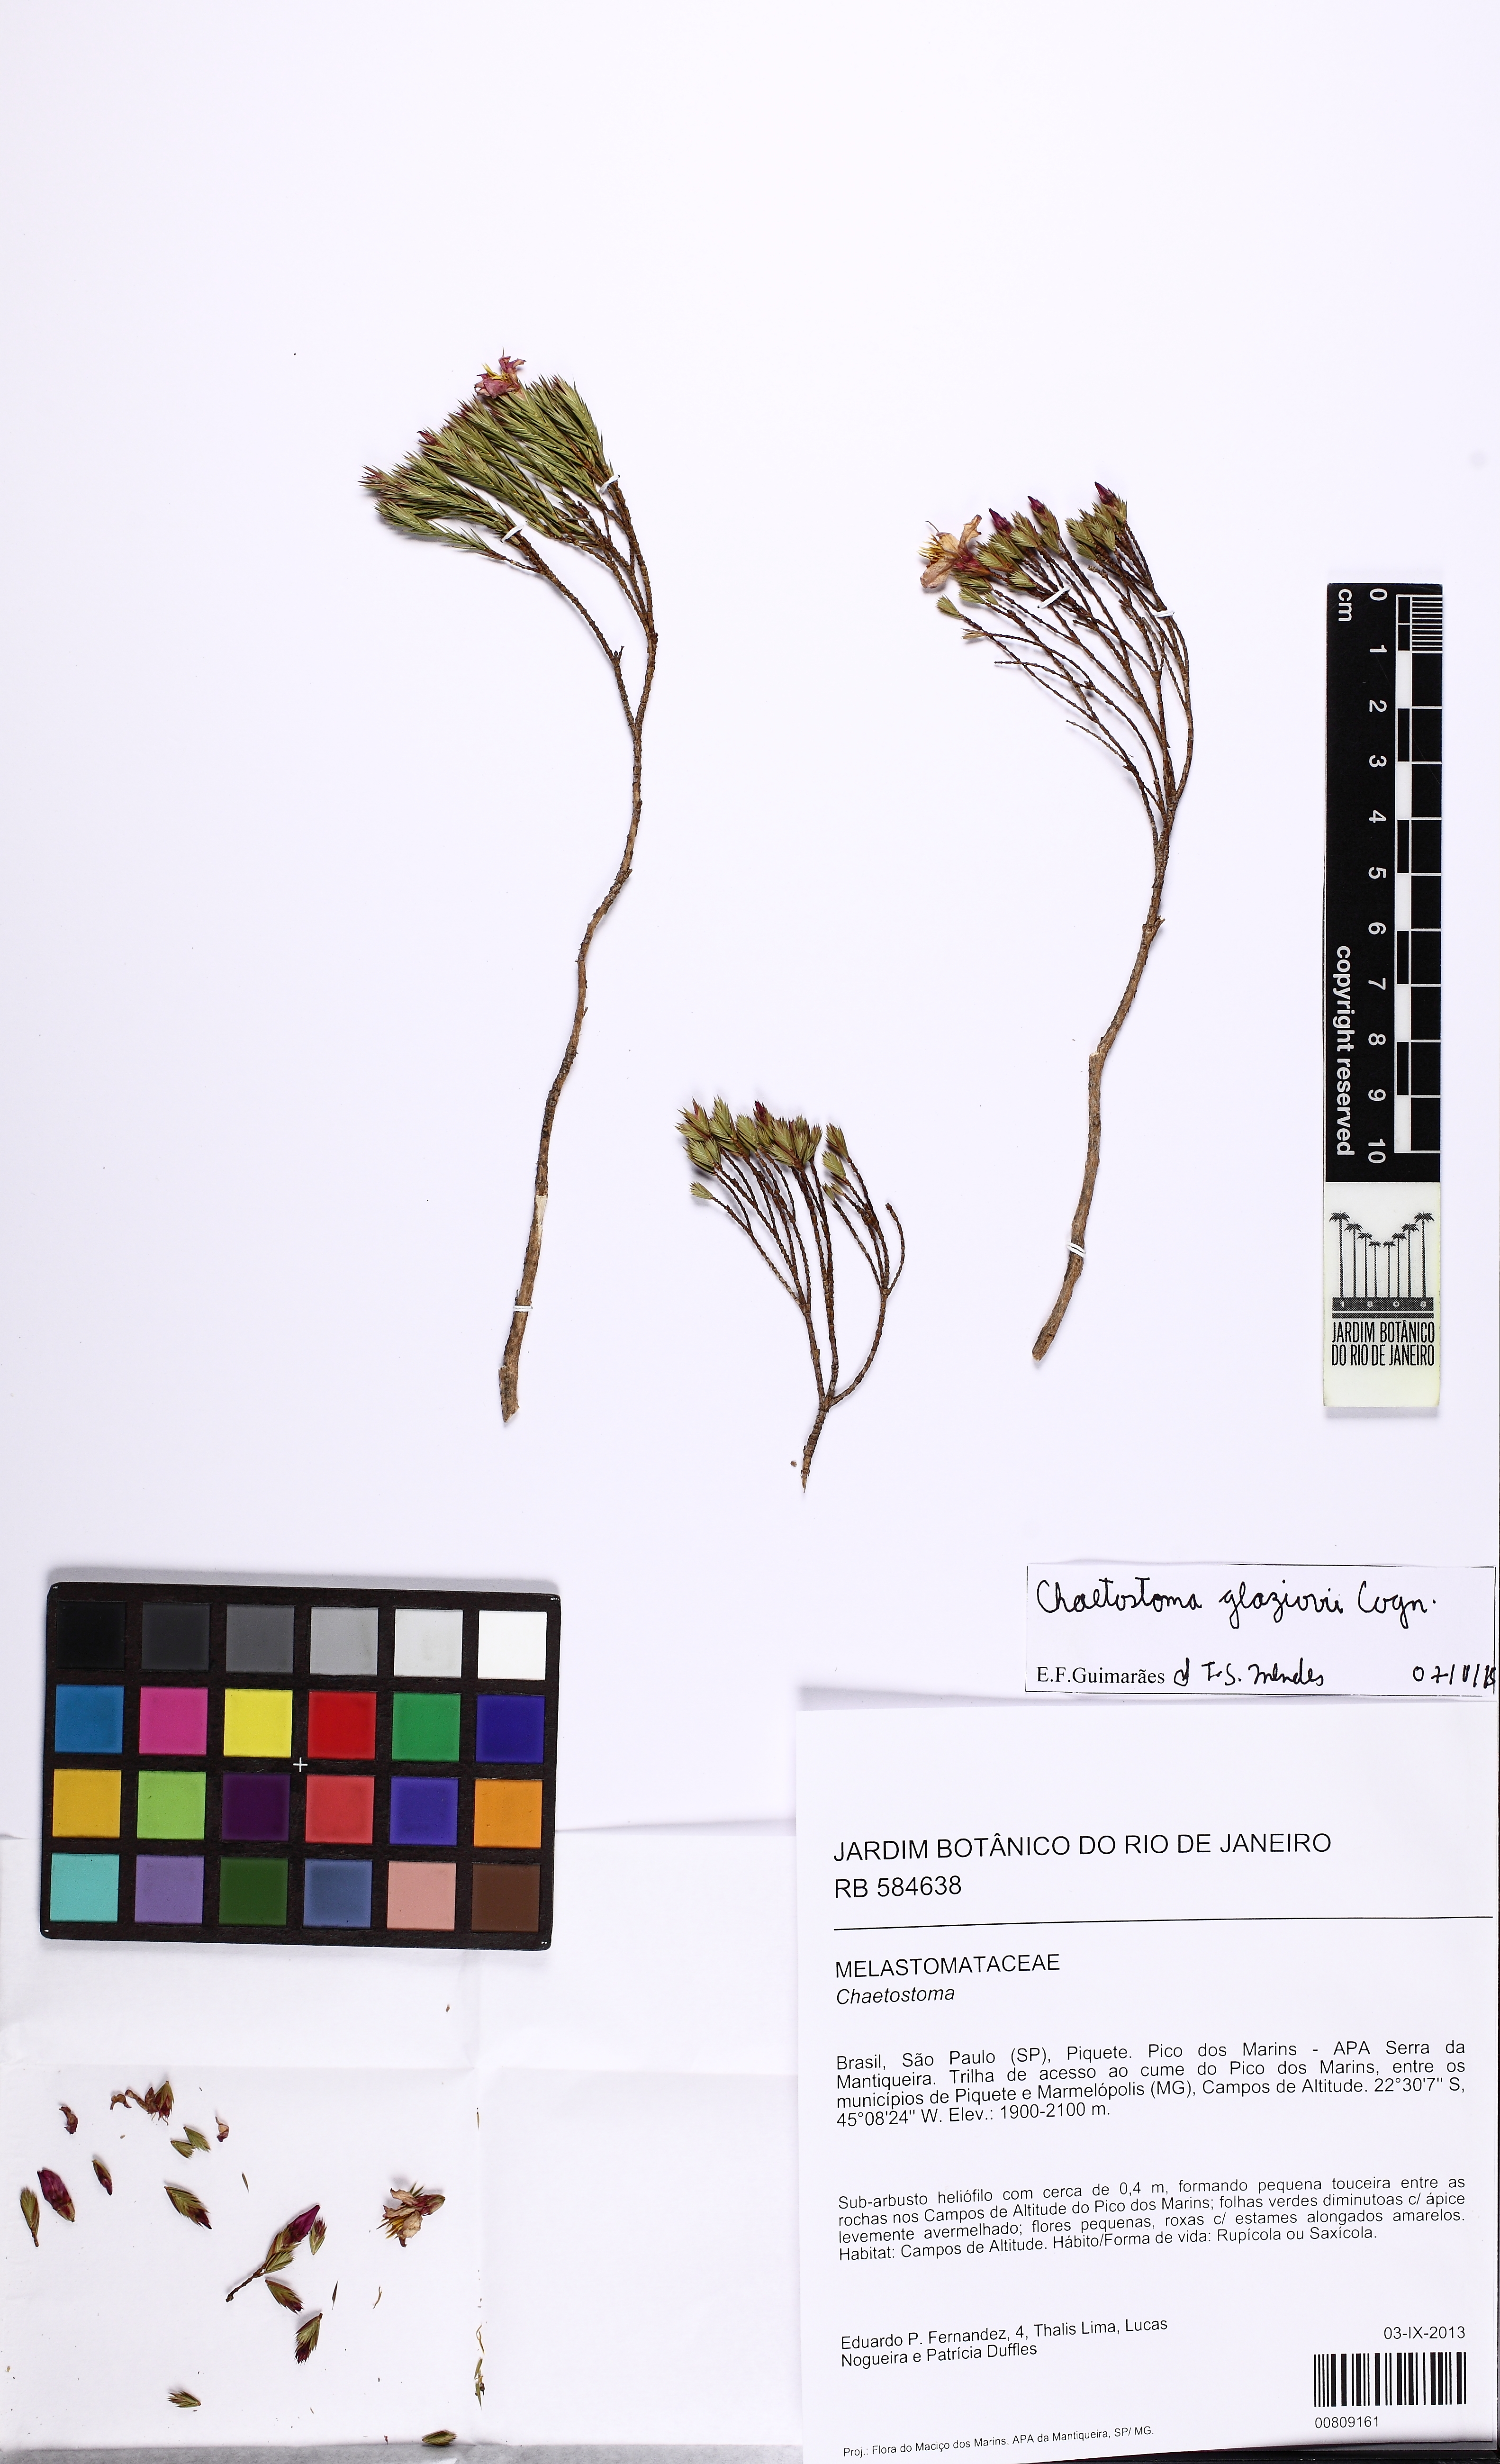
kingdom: Plantae
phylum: Tracheophyta
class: Magnoliopsida
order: Myrtales
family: Melastomataceae
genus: Microlicia
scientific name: Microlicia glaziovii
